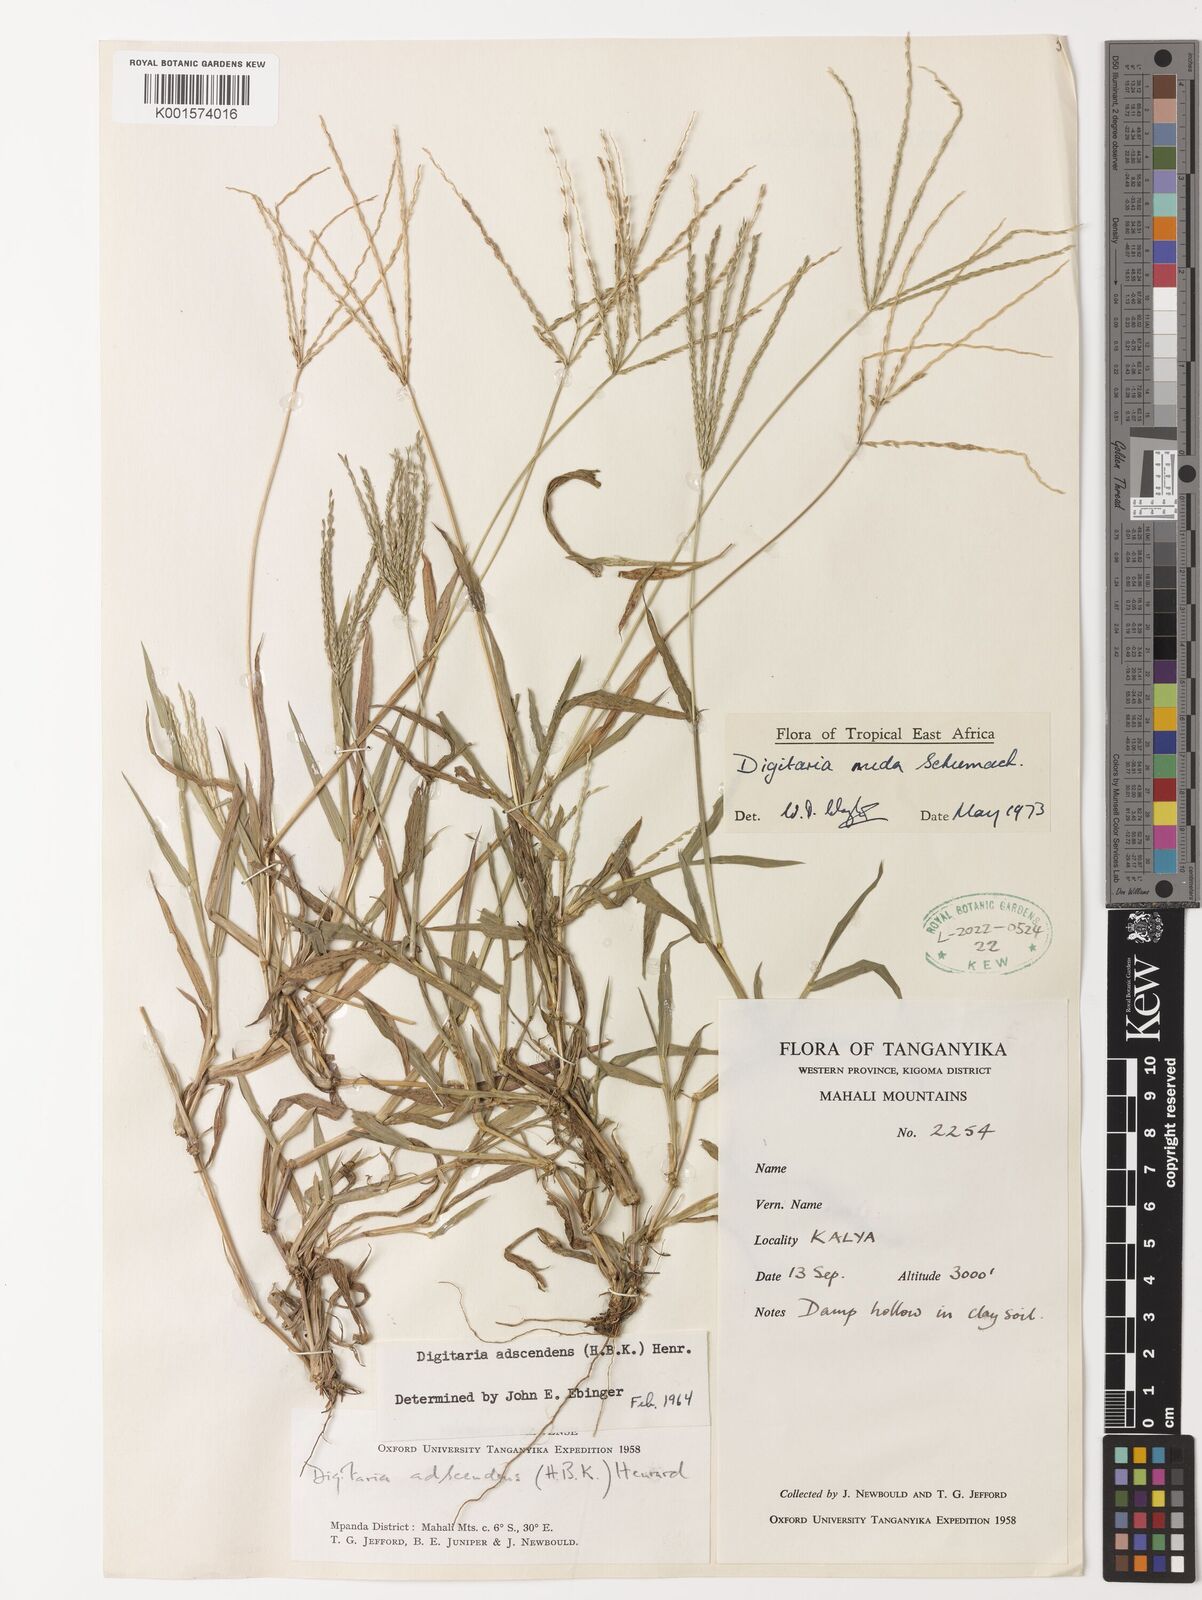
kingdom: Plantae
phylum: Tracheophyta
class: Liliopsida
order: Poales
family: Poaceae
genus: Digitaria
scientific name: Digitaria nuda
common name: Naked crabgrass
